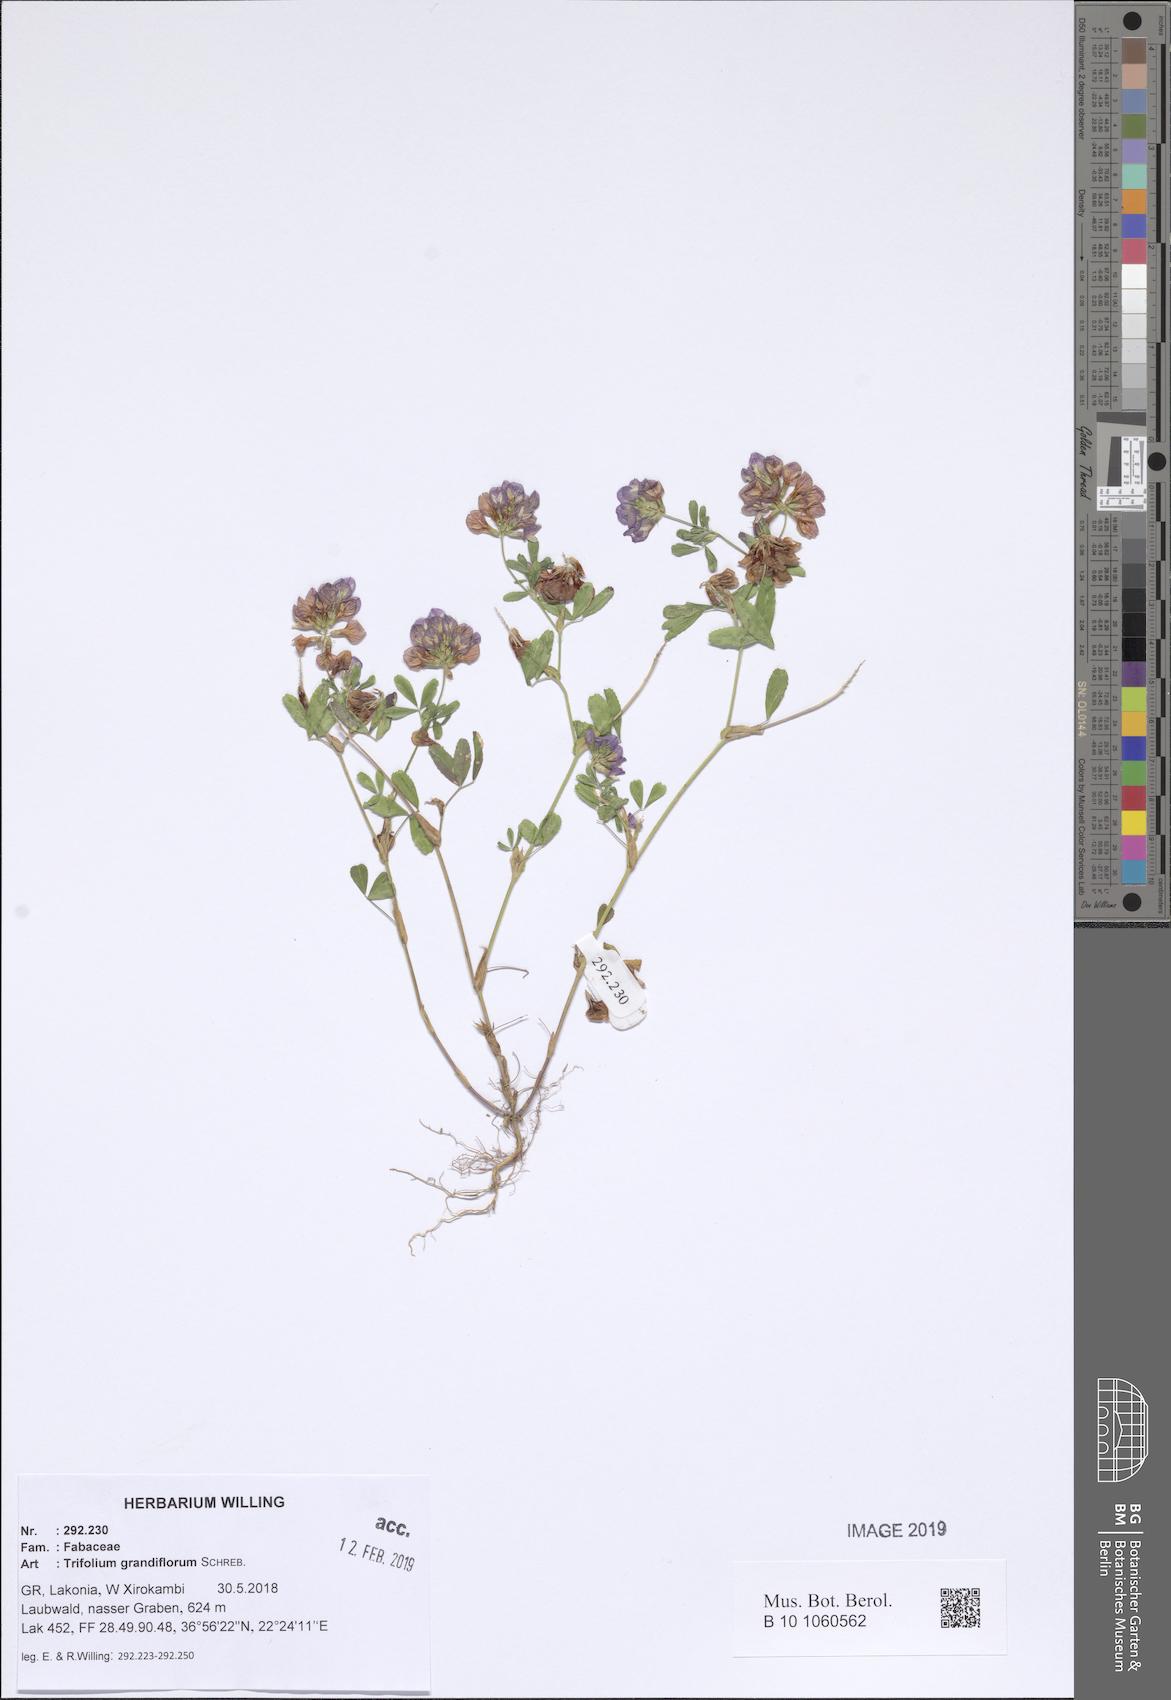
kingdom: Plantae
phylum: Tracheophyta
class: Magnoliopsida
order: Fabales
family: Fabaceae
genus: Trifolium
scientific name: Trifolium grandiflorum
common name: Large-flower hop clover
